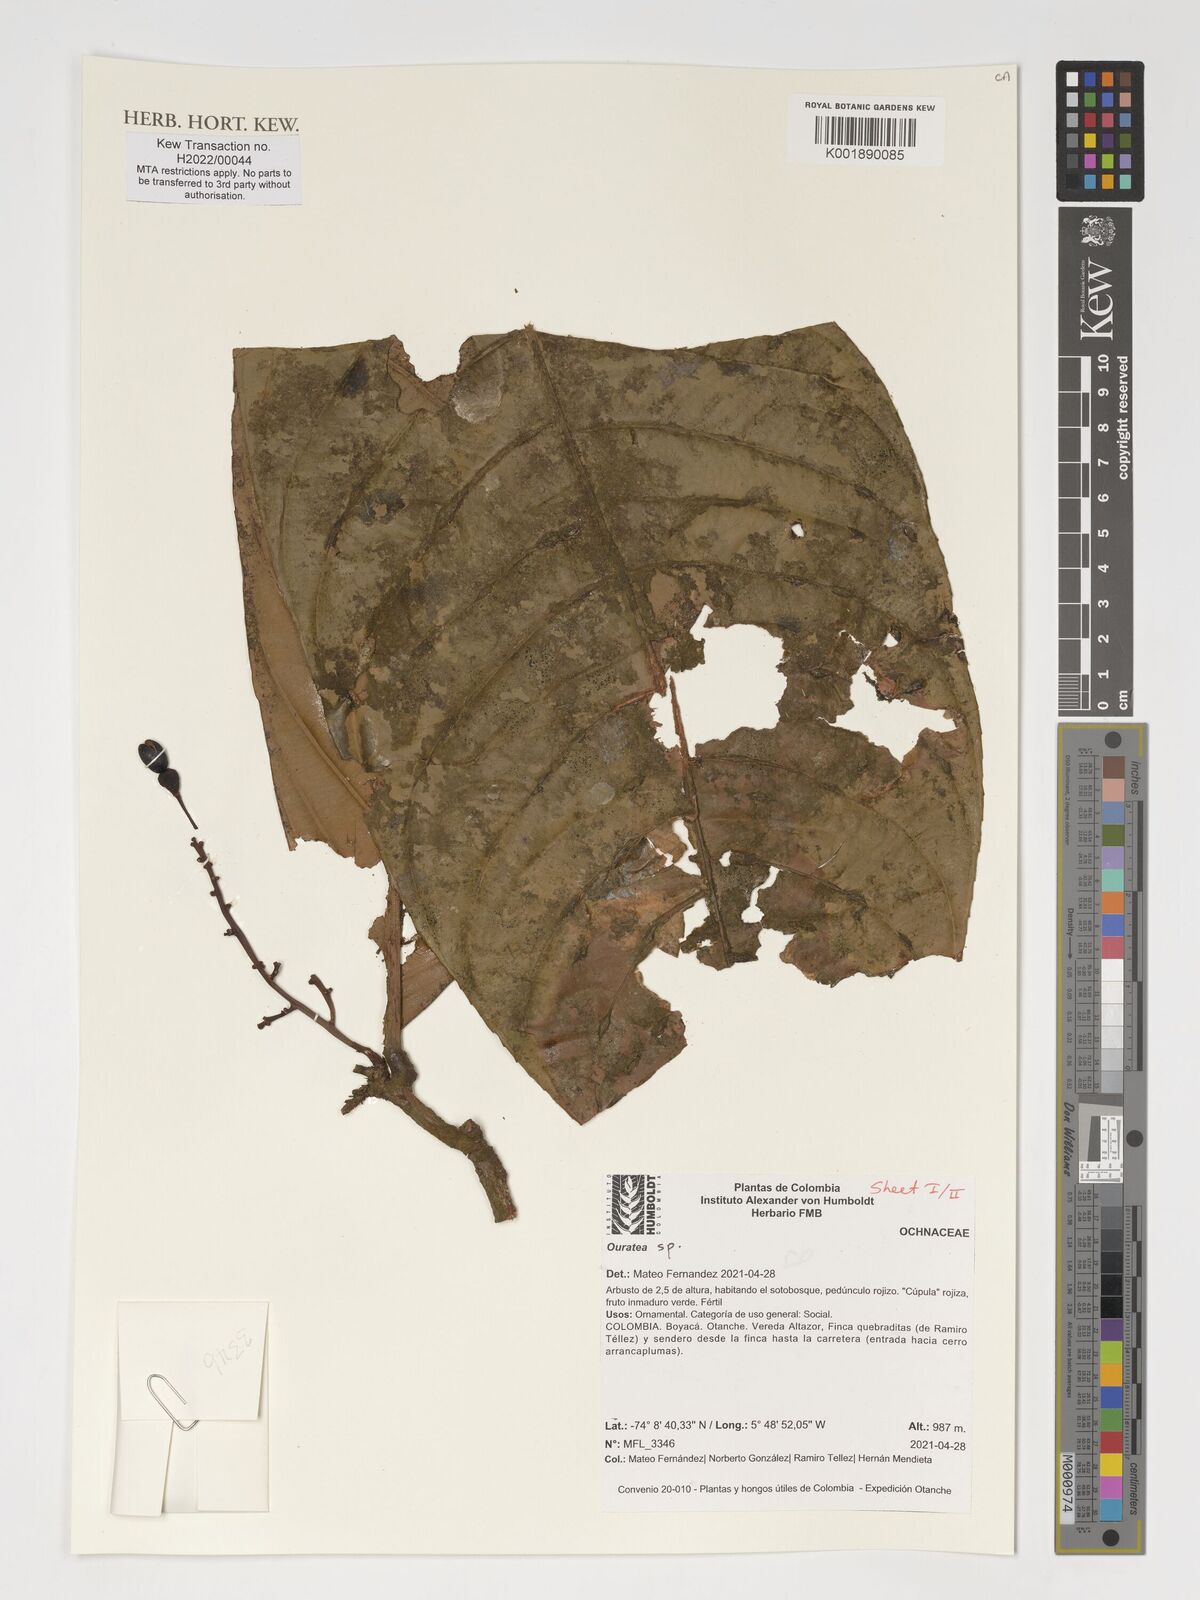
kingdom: Plantae
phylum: Tracheophyta
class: Magnoliopsida
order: Malpighiales
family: Ochnaceae
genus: Ouratea
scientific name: Ouratea
